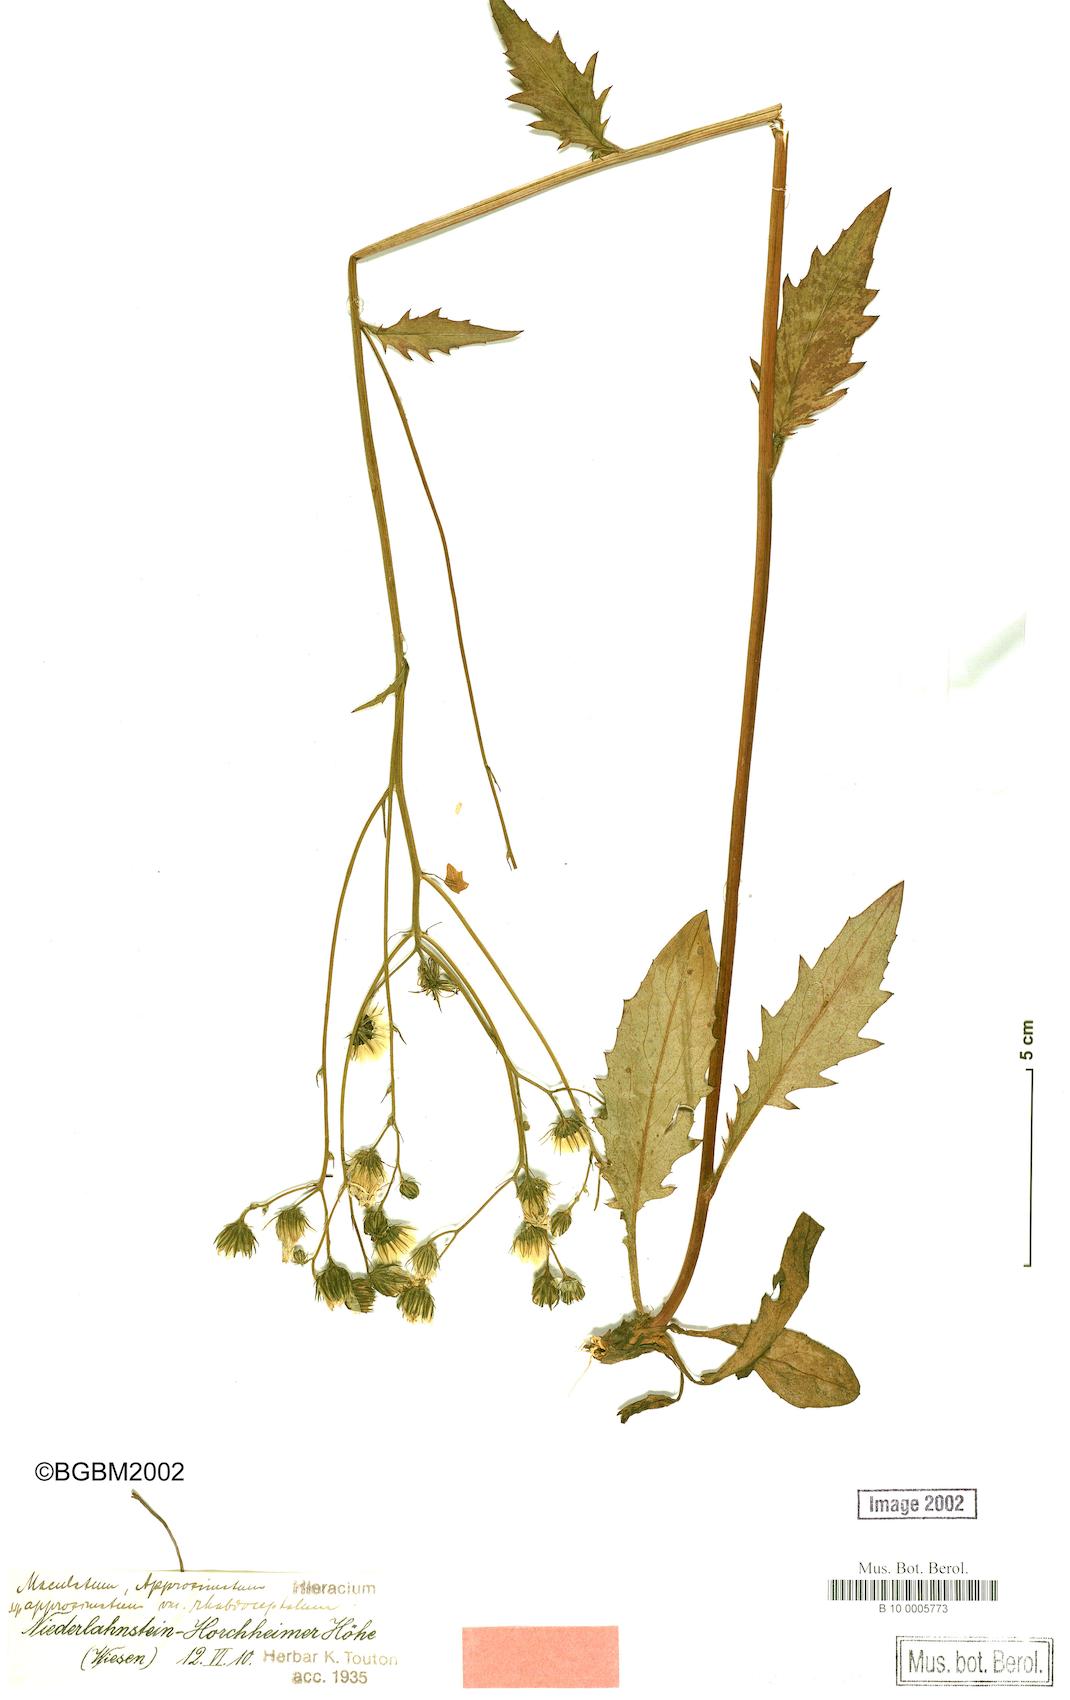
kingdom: Plantae
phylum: Tracheophyta
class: Magnoliopsida
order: Asterales
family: Asteraceae
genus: Hieracium
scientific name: Hieracium maculatum
